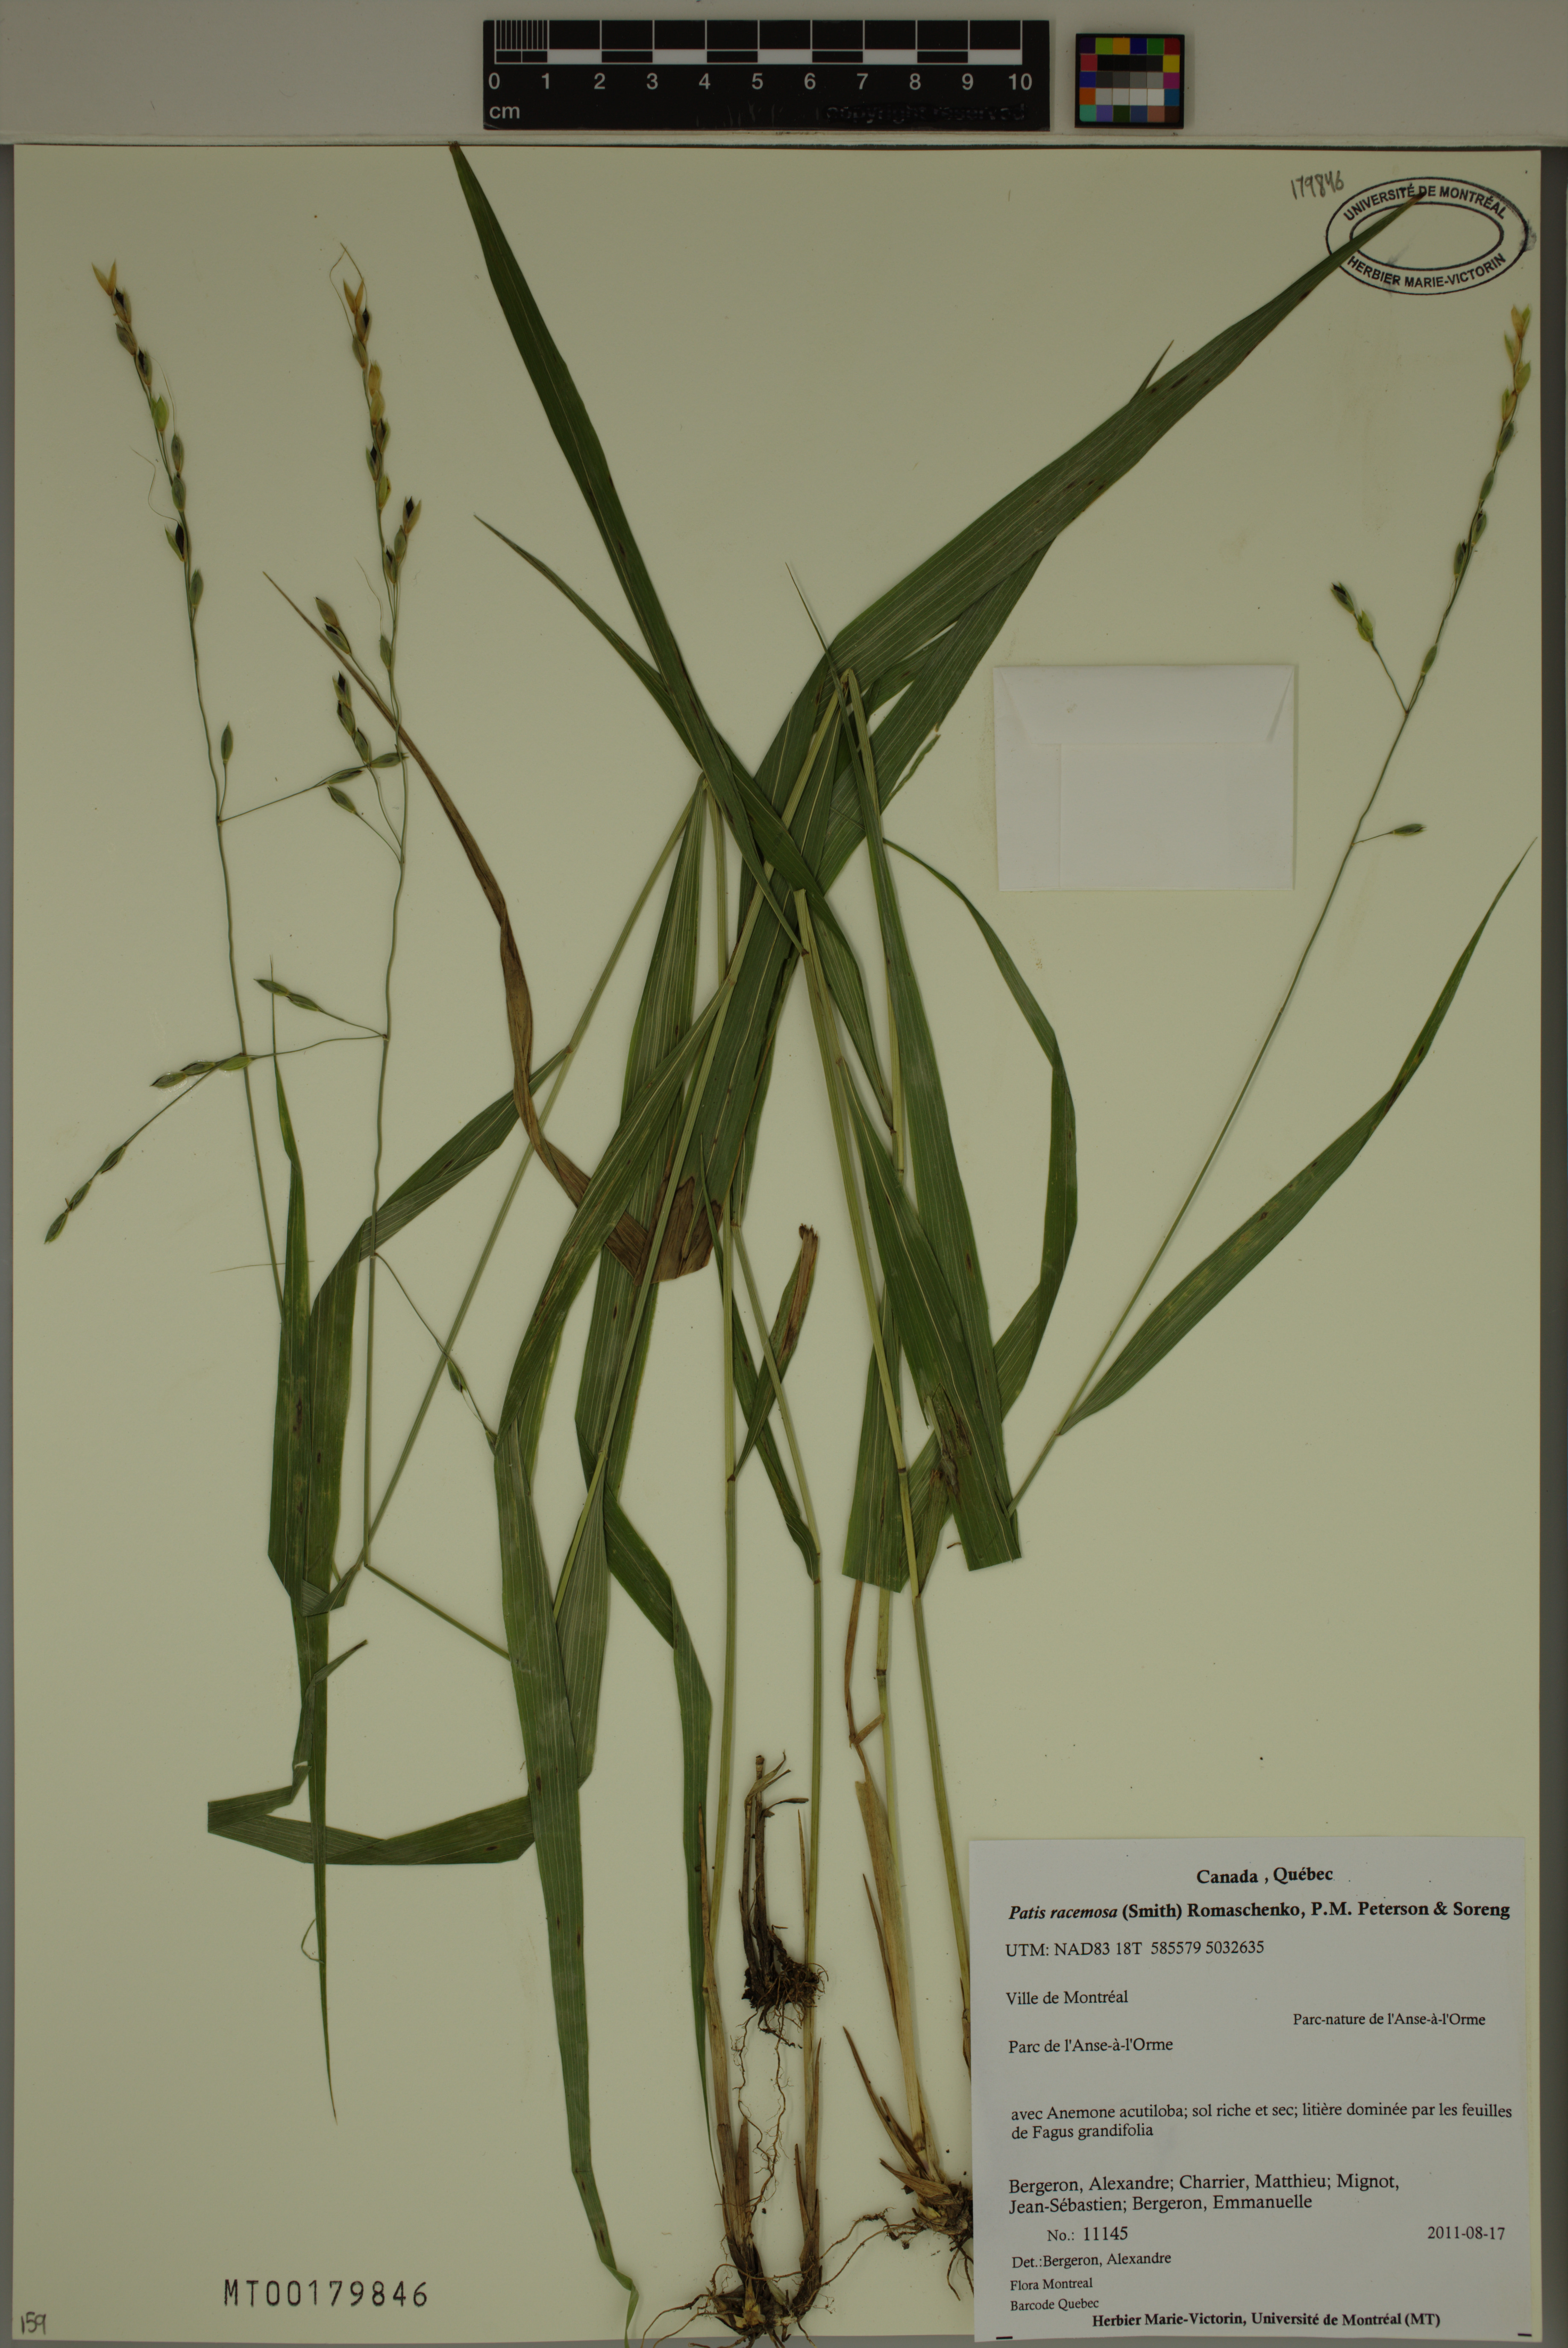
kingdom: Plantae
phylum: Tracheophyta
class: Liliopsida
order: Poales
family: Poaceae
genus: Patis
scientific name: Patis racemosa
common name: Black-fruited mountain rice
